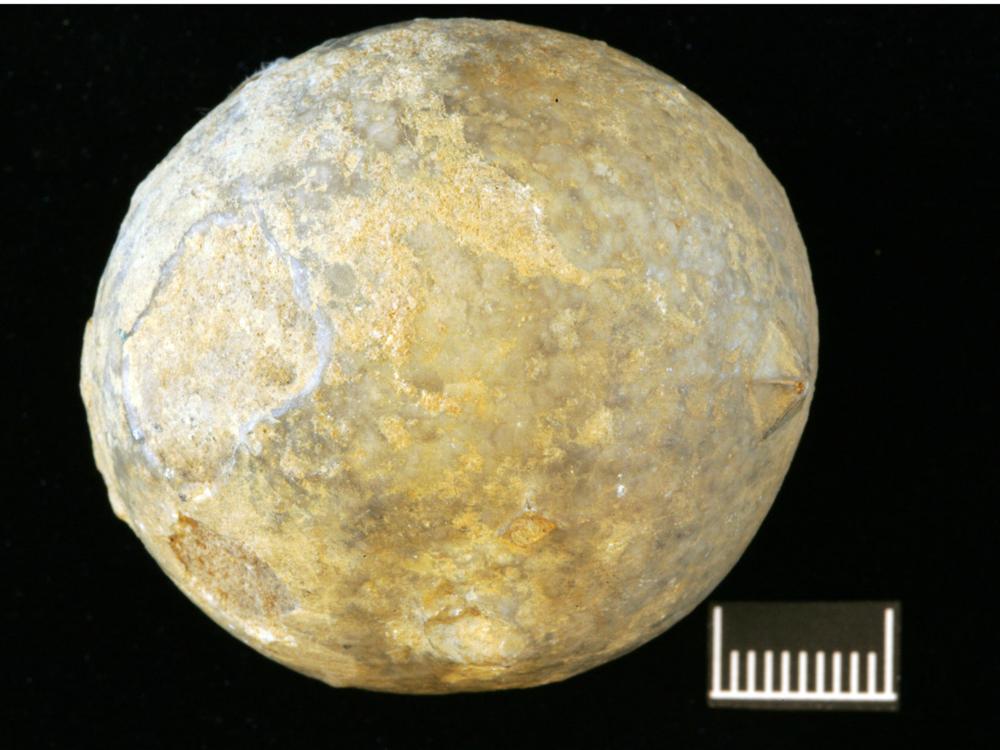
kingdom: Animalia
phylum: Echinodermata
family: Echinosphaeritidae
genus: Echinosphaerites
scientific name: Echinosphaerites Echinus aurantium
